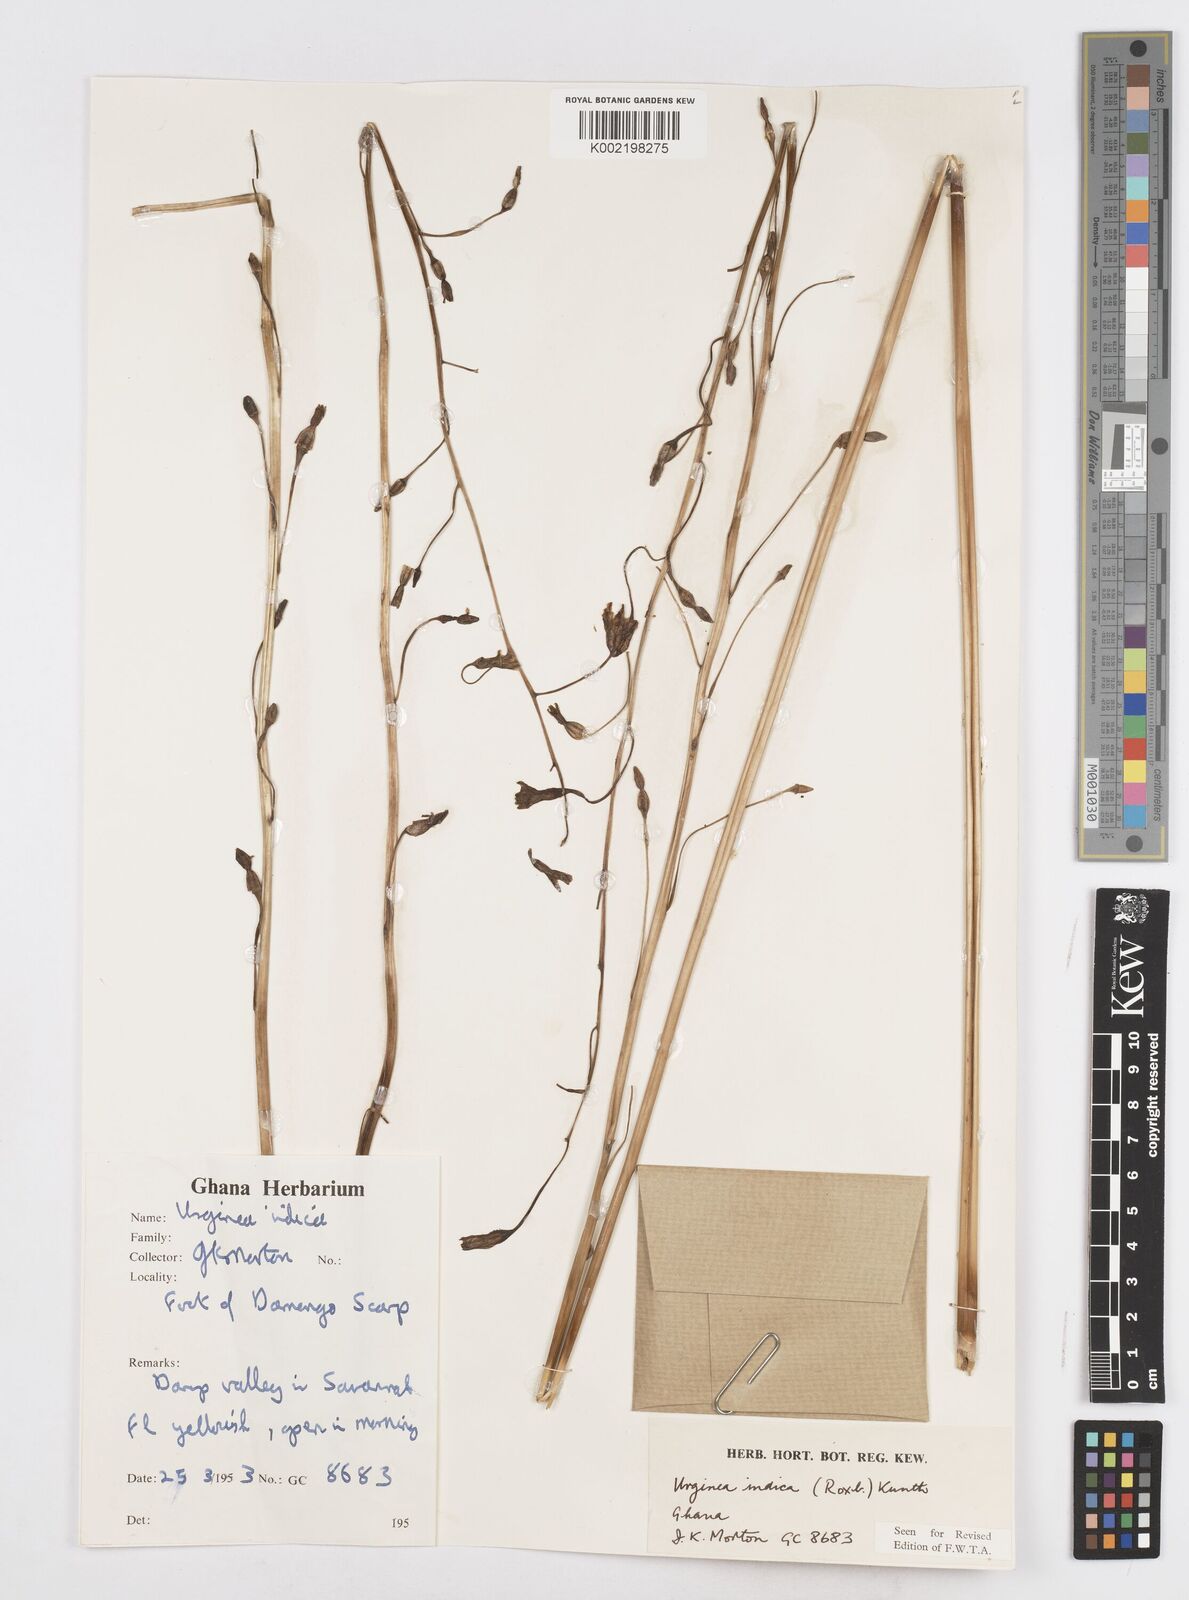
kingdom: Plantae
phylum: Tracheophyta
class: Liliopsida
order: Asparagales
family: Asparagaceae
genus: Drimia
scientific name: Drimia indica
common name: Indian-squill
